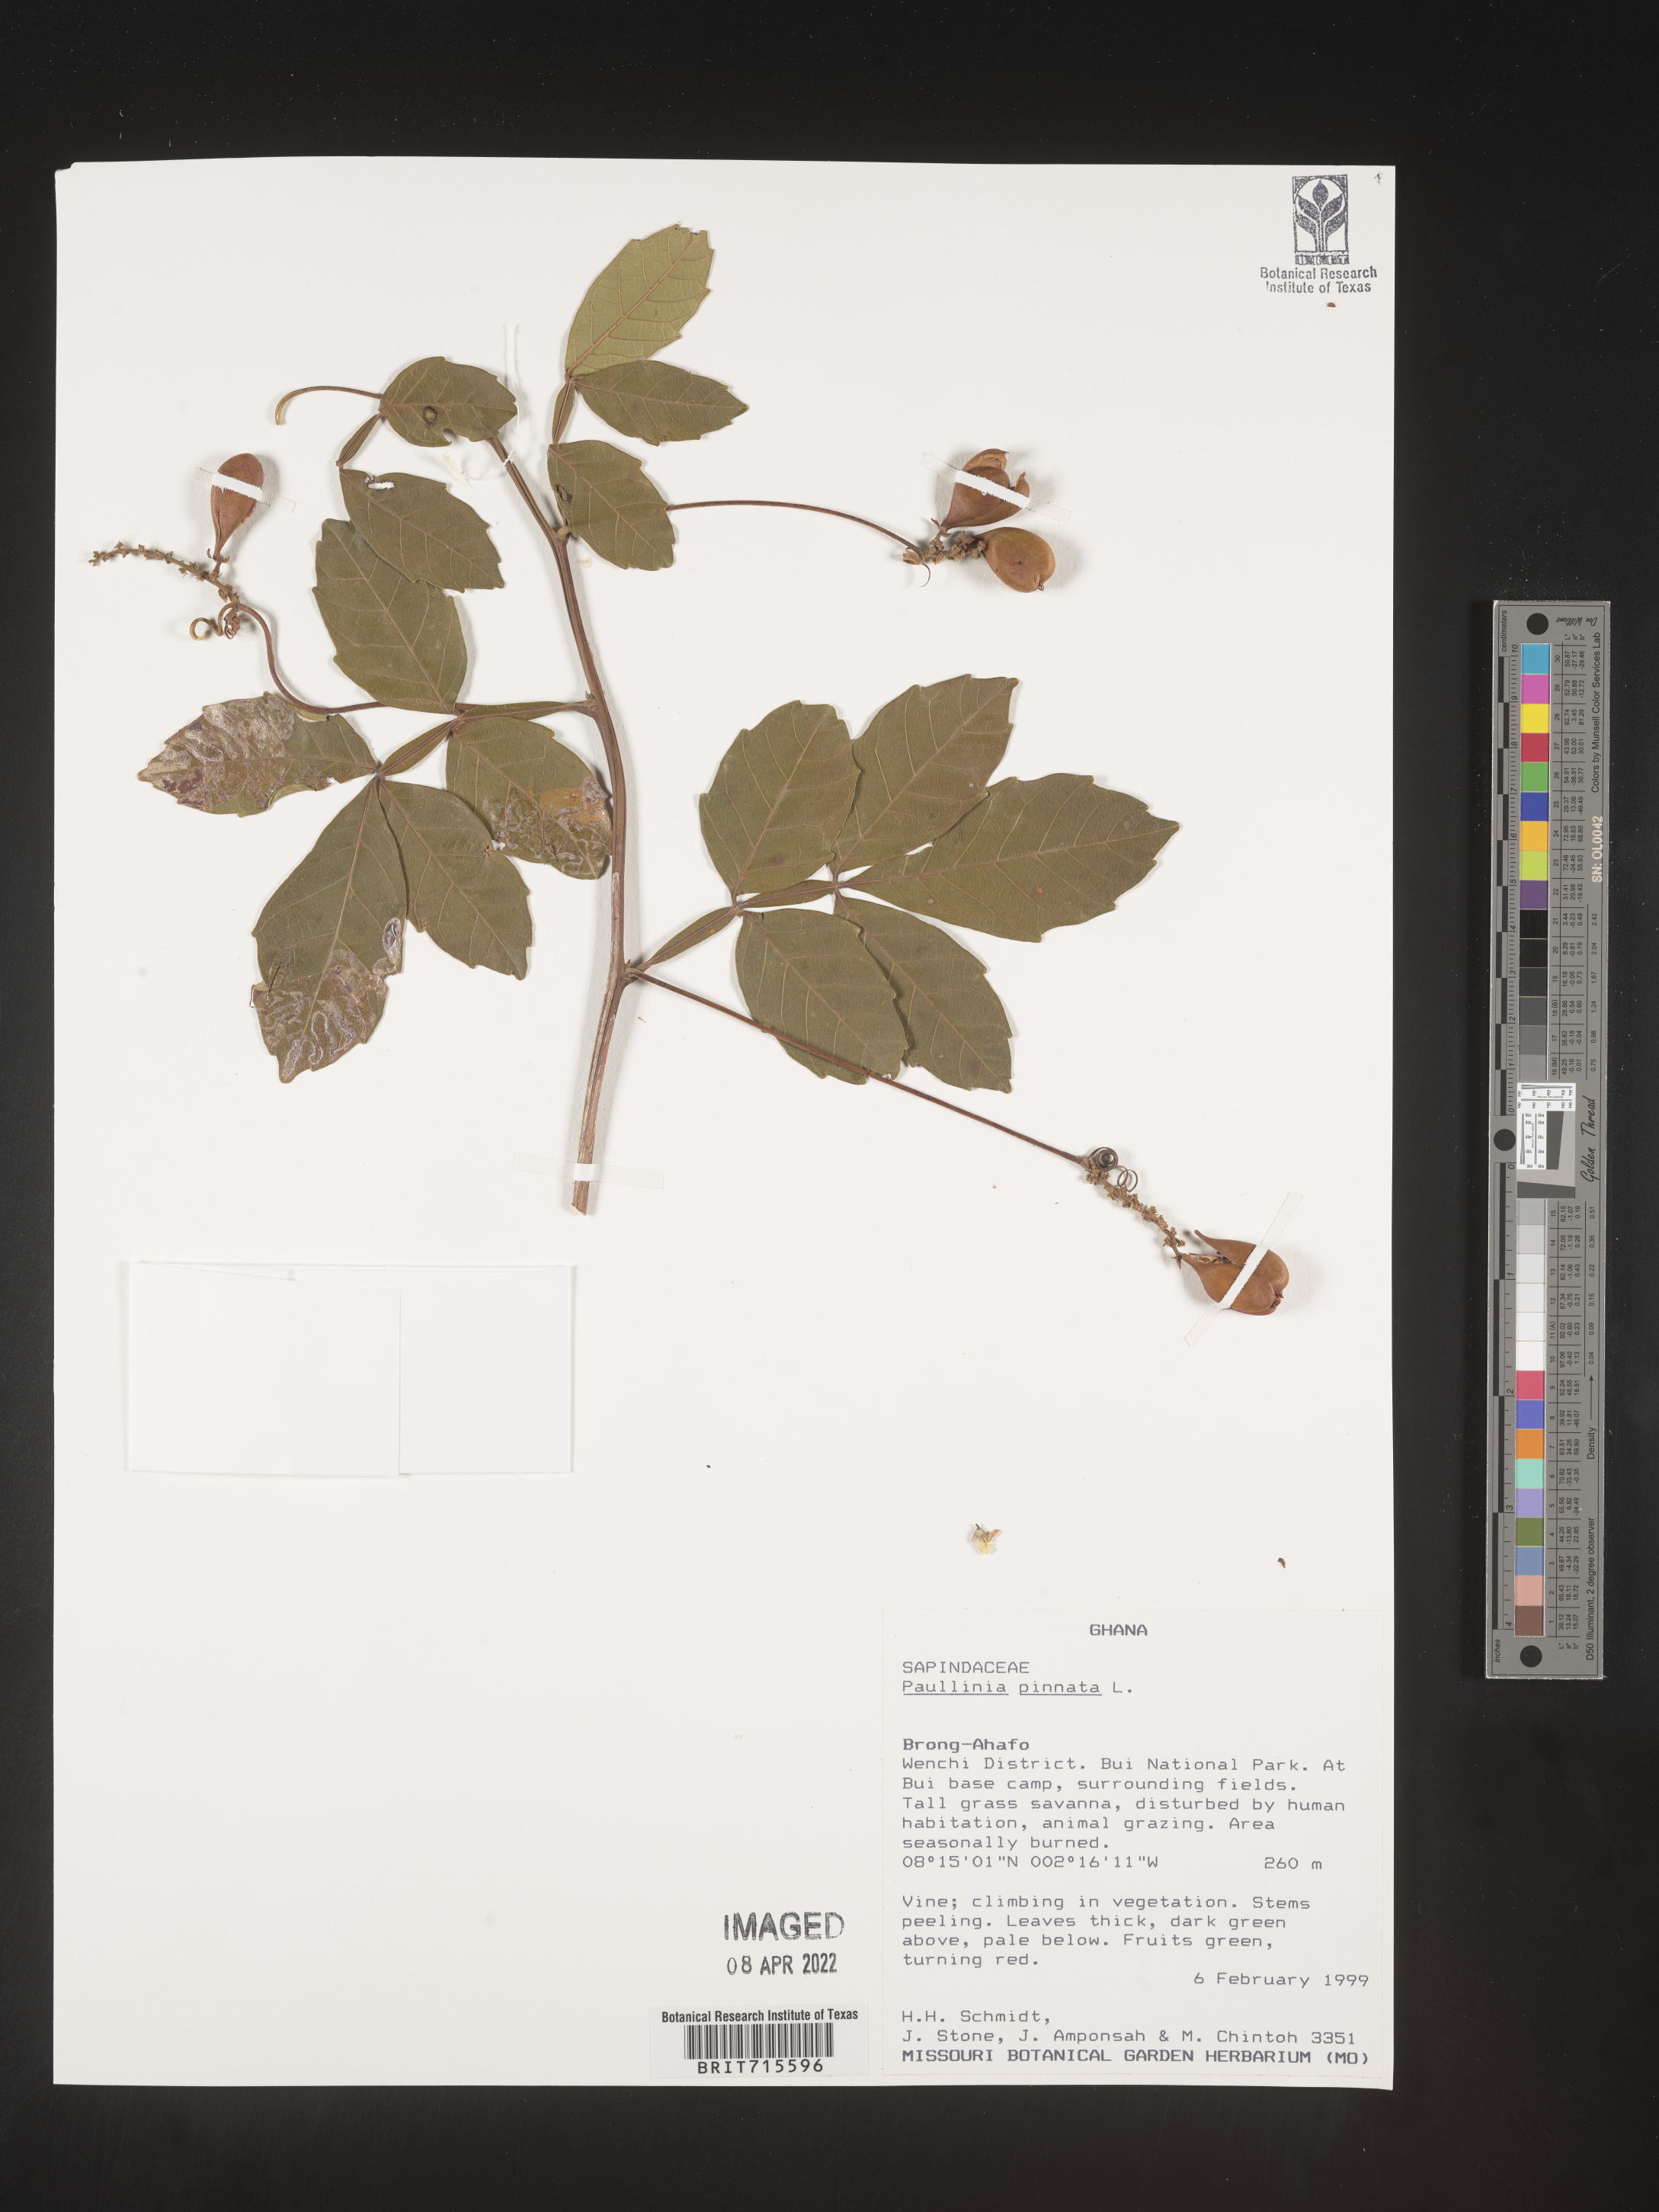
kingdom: Plantae
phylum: Tracheophyta
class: Magnoliopsida
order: Sapindales
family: Sapindaceae
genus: Paullinia
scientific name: Paullinia
